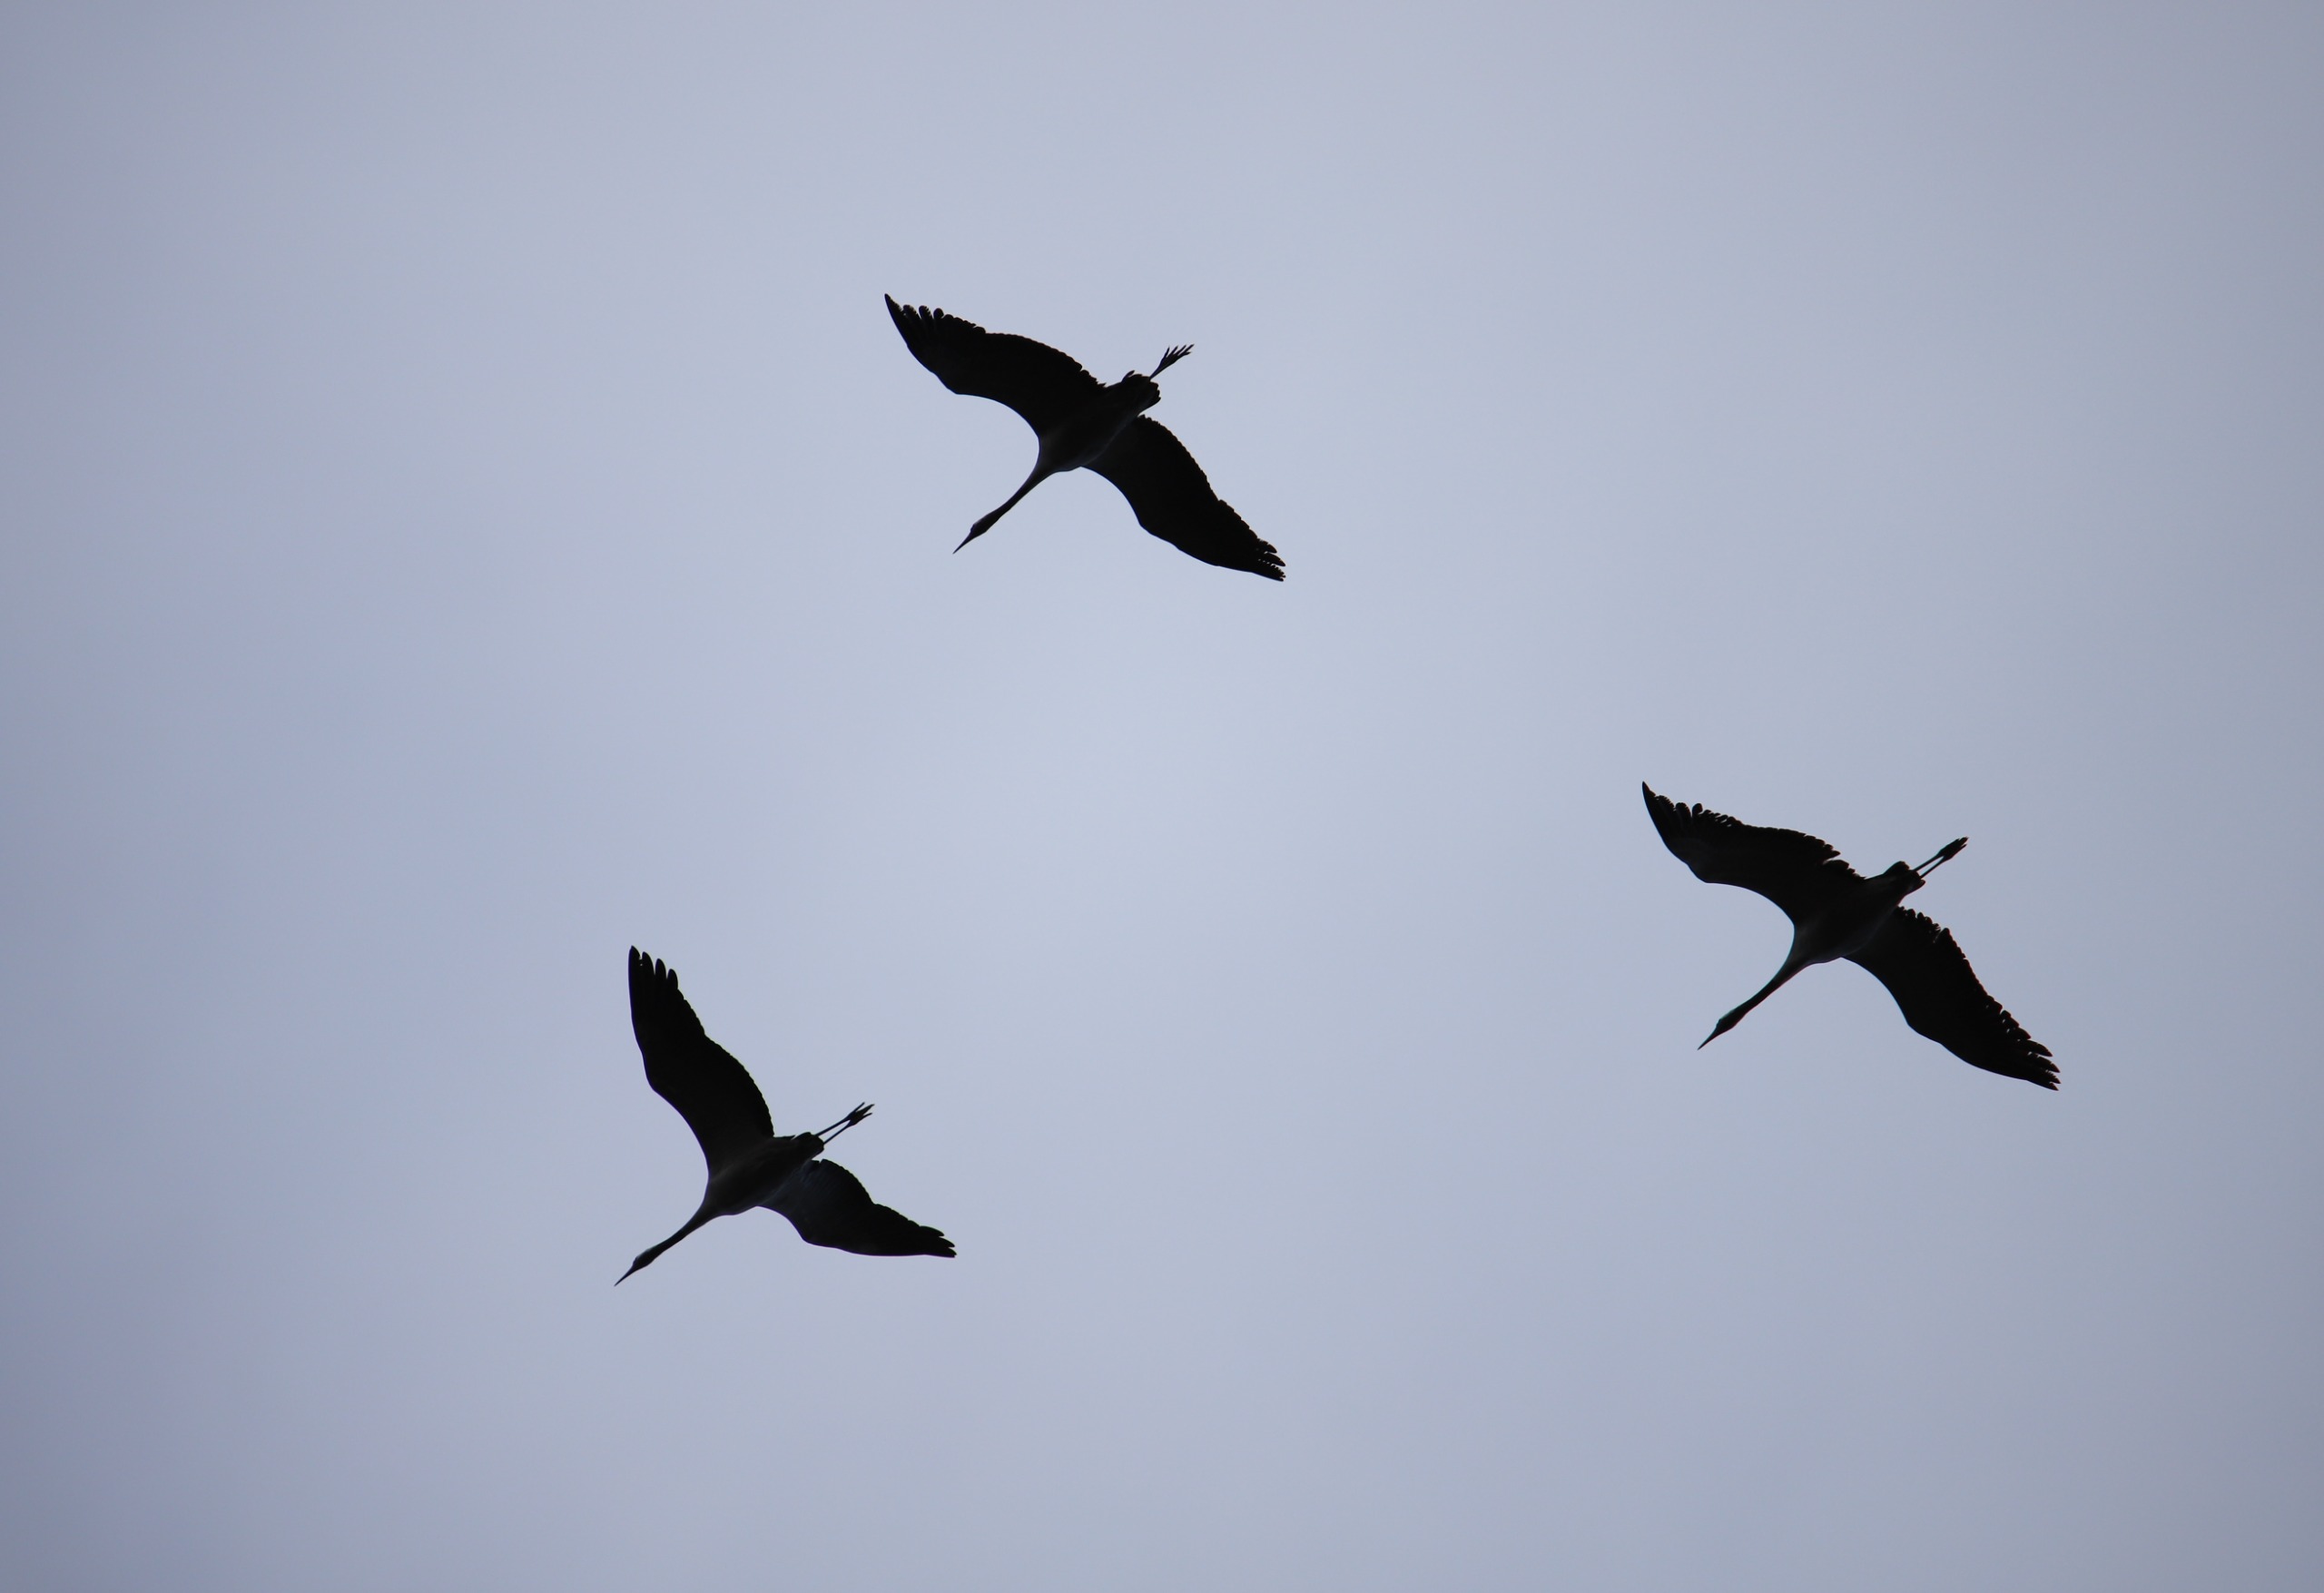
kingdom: Animalia
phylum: Chordata
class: Aves
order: Gruiformes
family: Gruidae
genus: Grus
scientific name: Grus grus
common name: Trane
